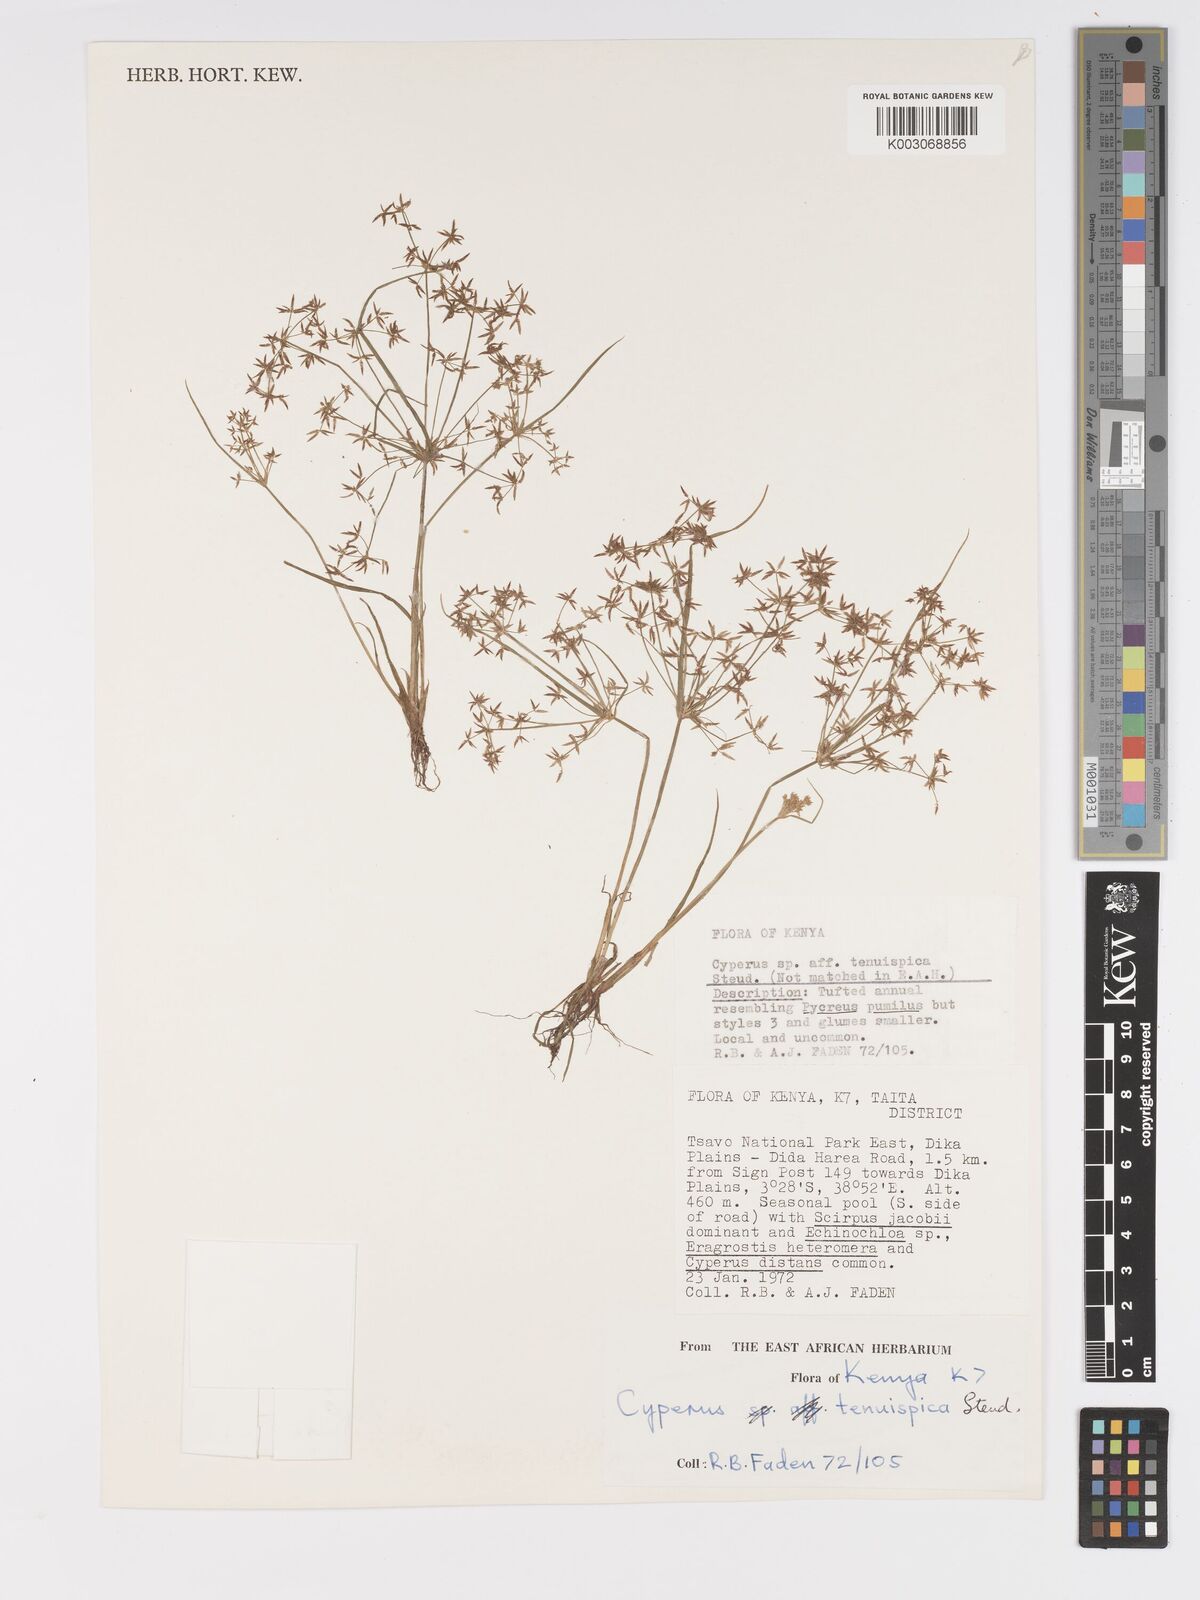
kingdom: Plantae
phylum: Tracheophyta
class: Liliopsida
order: Poales
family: Cyperaceae
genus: Cyperus
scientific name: Cyperus tenuispica
